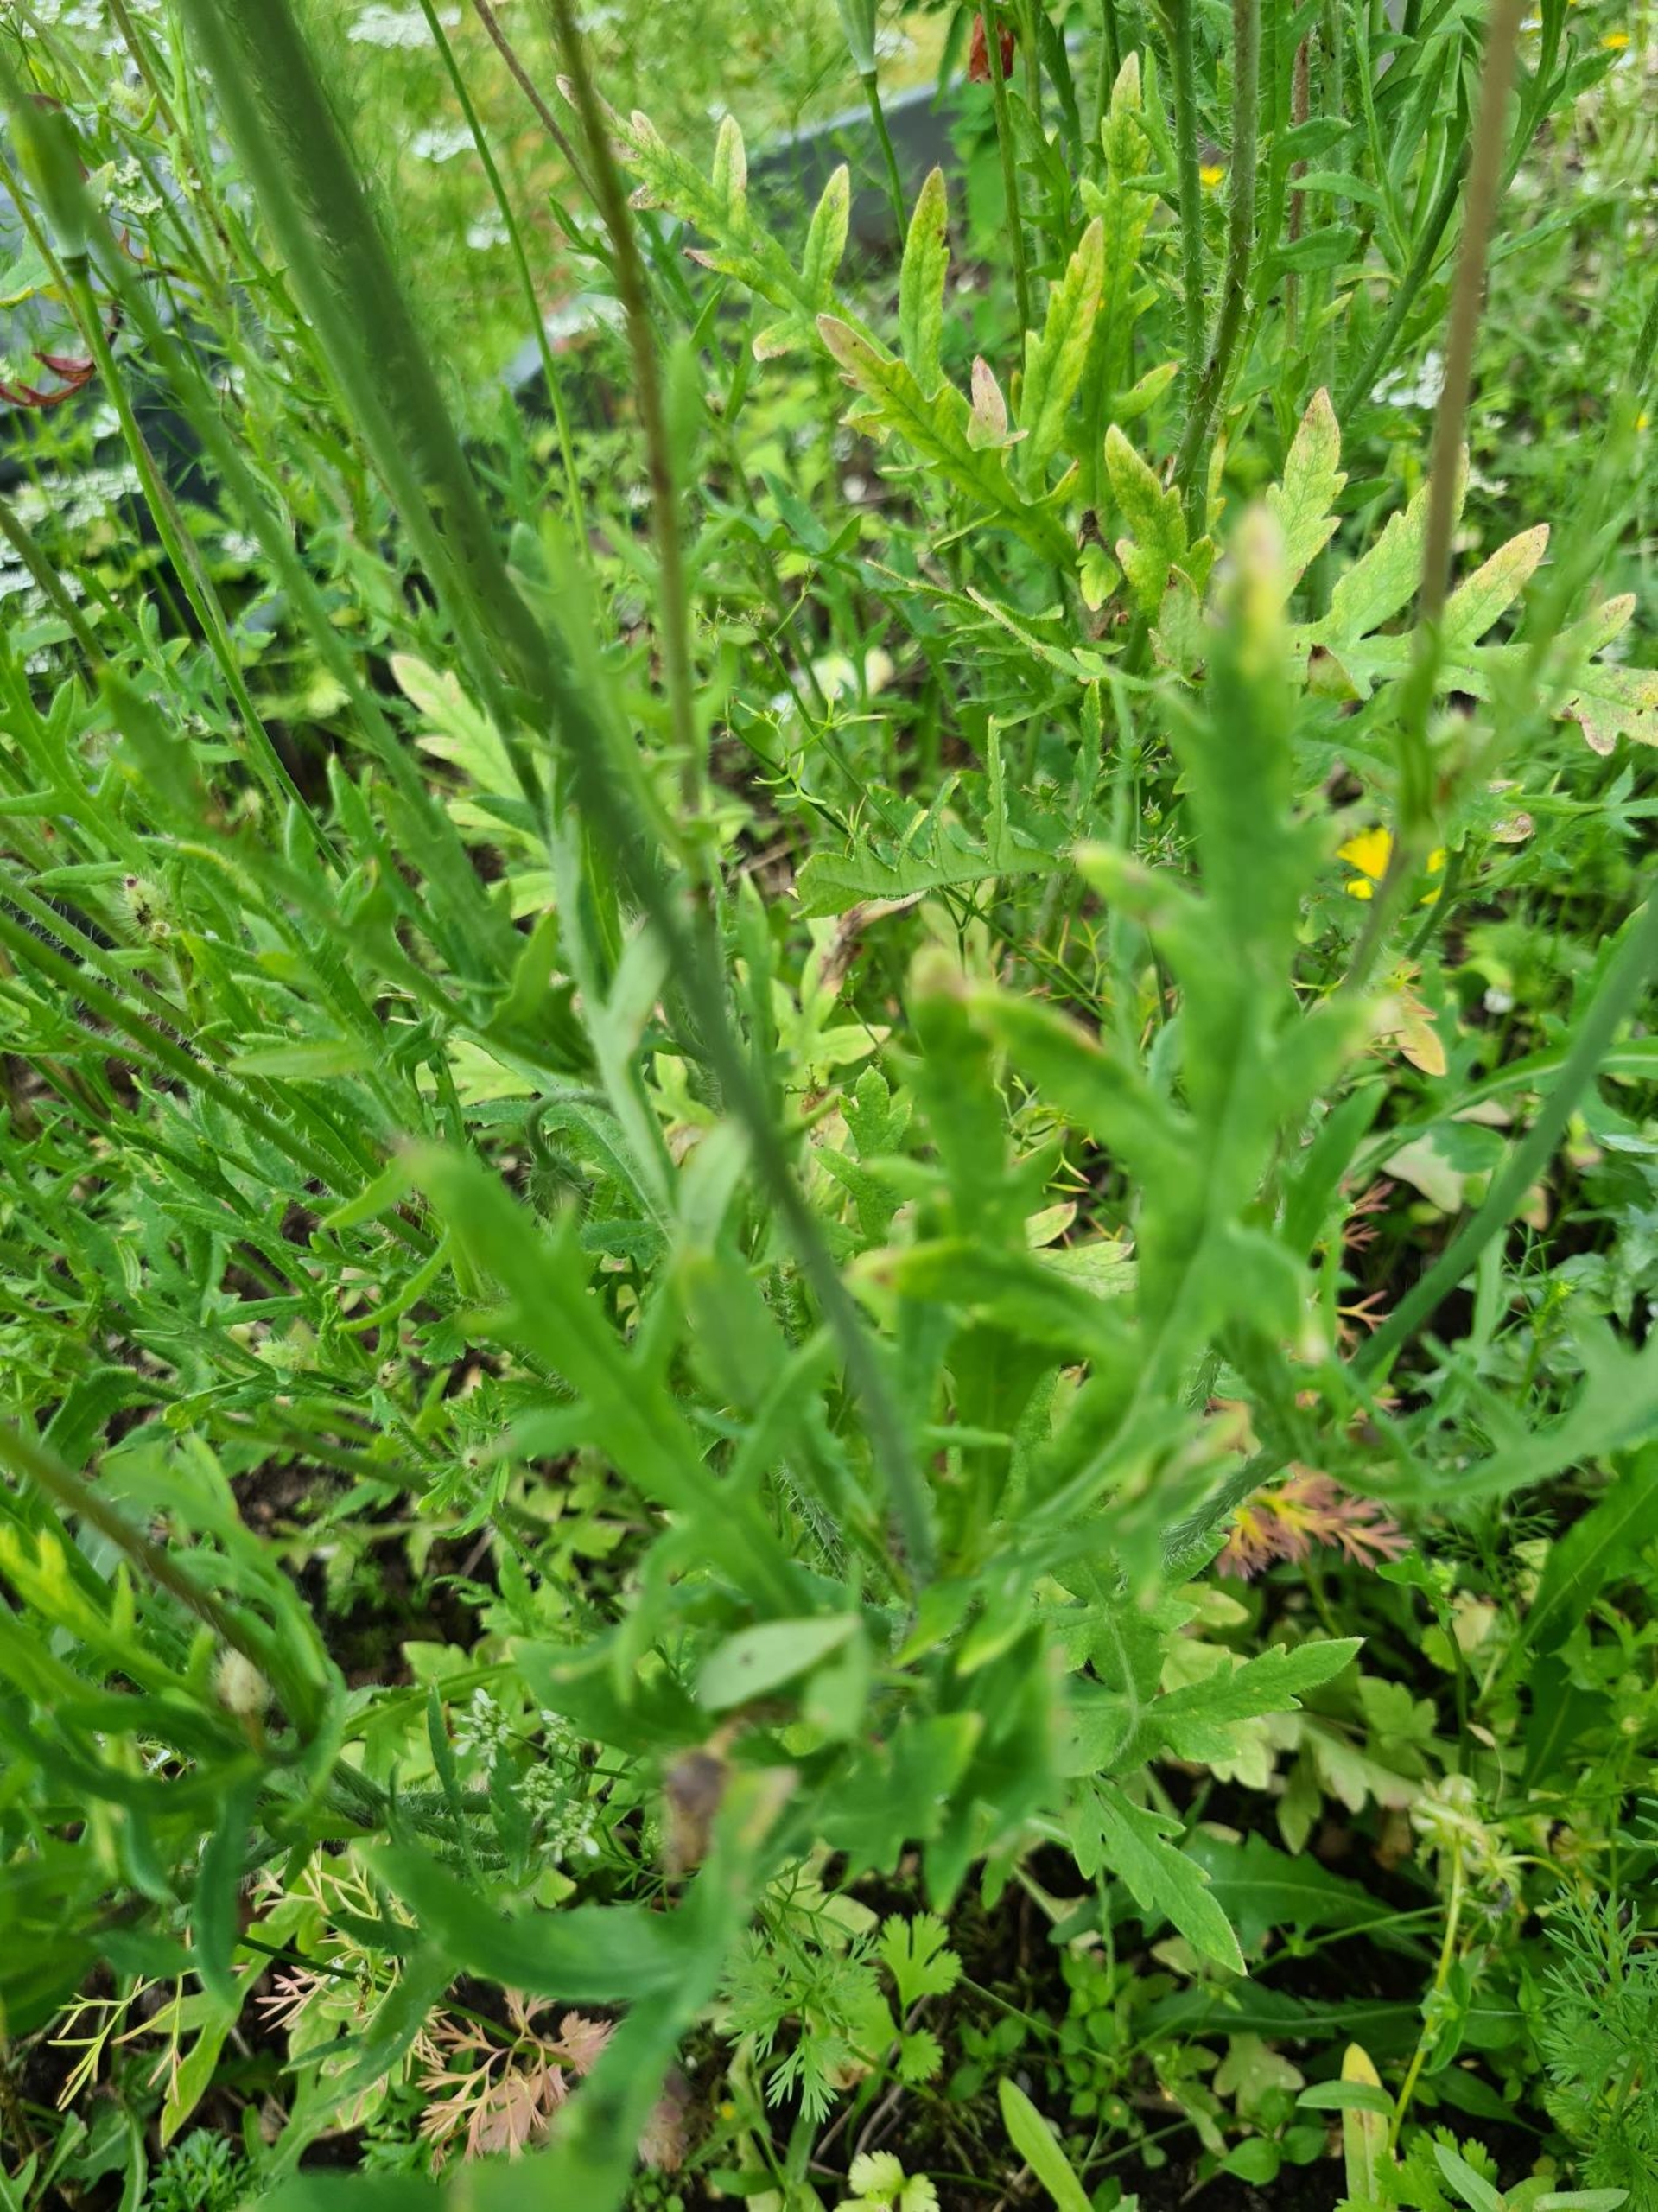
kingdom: Plantae
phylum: Tracheophyta
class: Magnoliopsida
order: Ranunculales
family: Papaveraceae
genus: Papaver
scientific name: Papaver dubium
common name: Gærde-valmue
